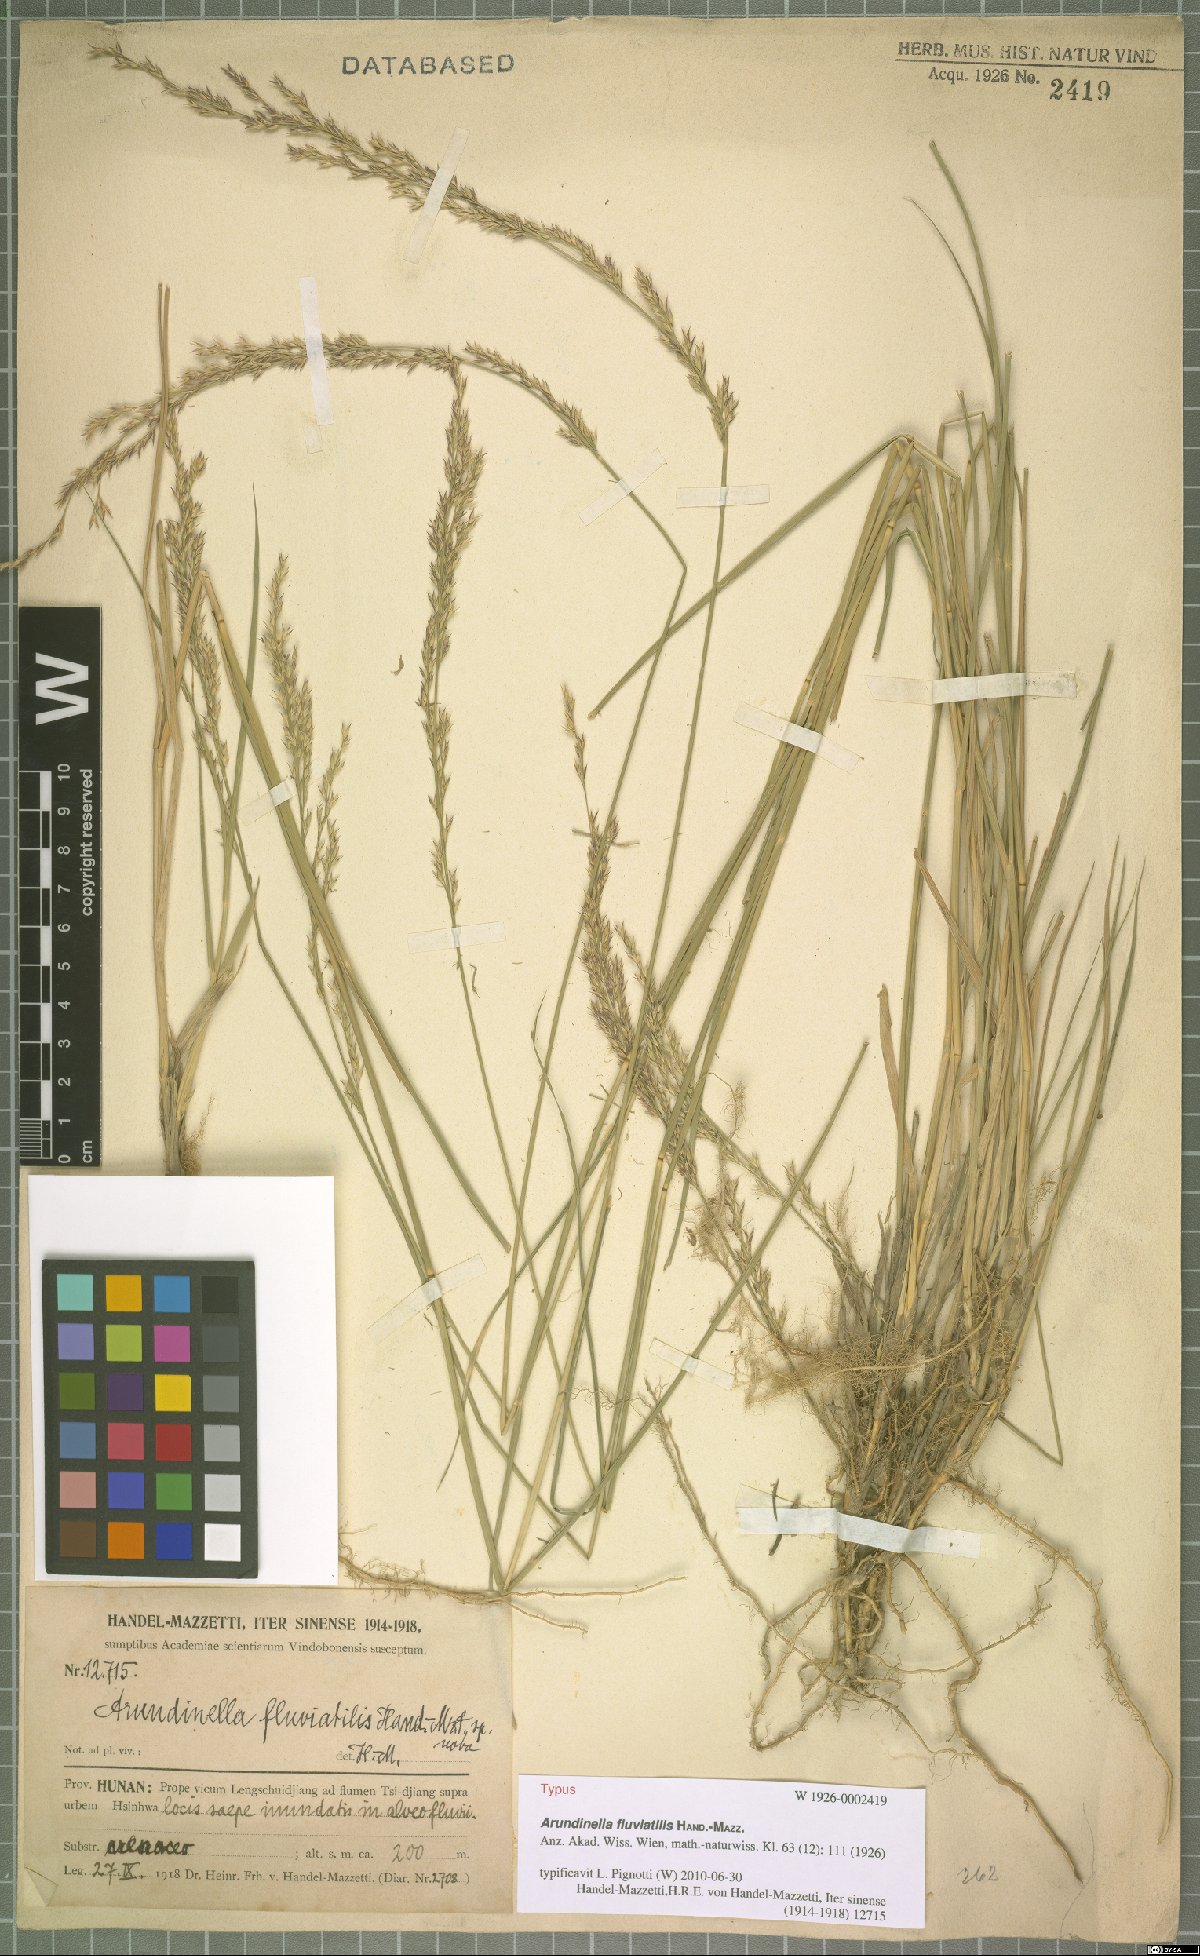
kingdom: Plantae
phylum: Tracheophyta
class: Liliopsida
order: Poales
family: Poaceae
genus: Arundinella
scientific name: Arundinella fluviatilis
